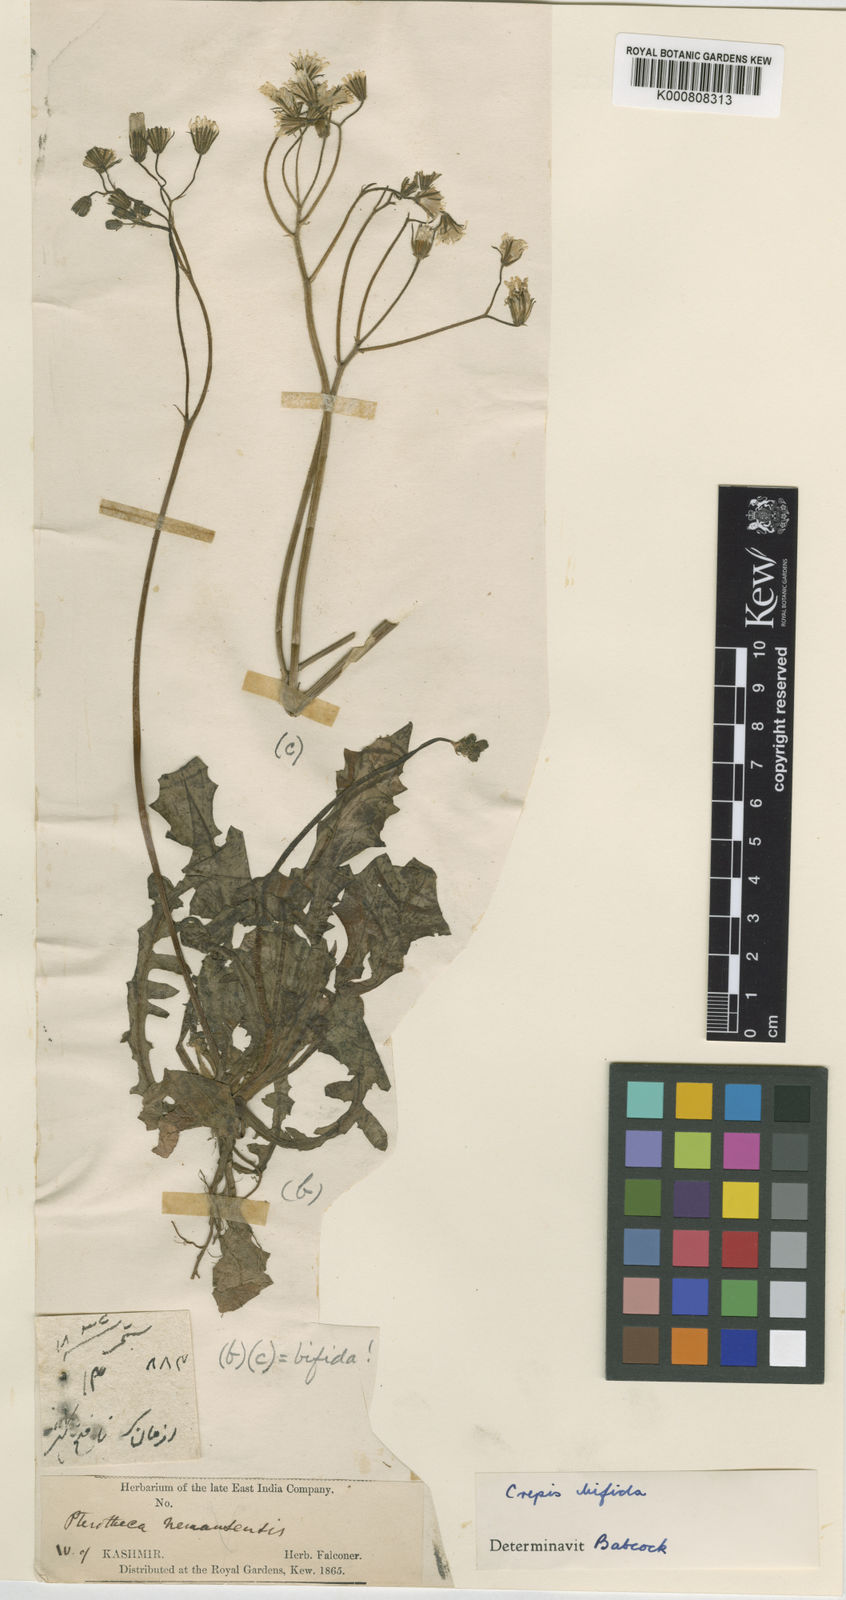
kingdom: Plantae
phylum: Tracheophyta
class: Magnoliopsida
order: Asterales
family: Asteraceae
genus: Crepis
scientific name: Crepis sancta
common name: Hawk's-beard
